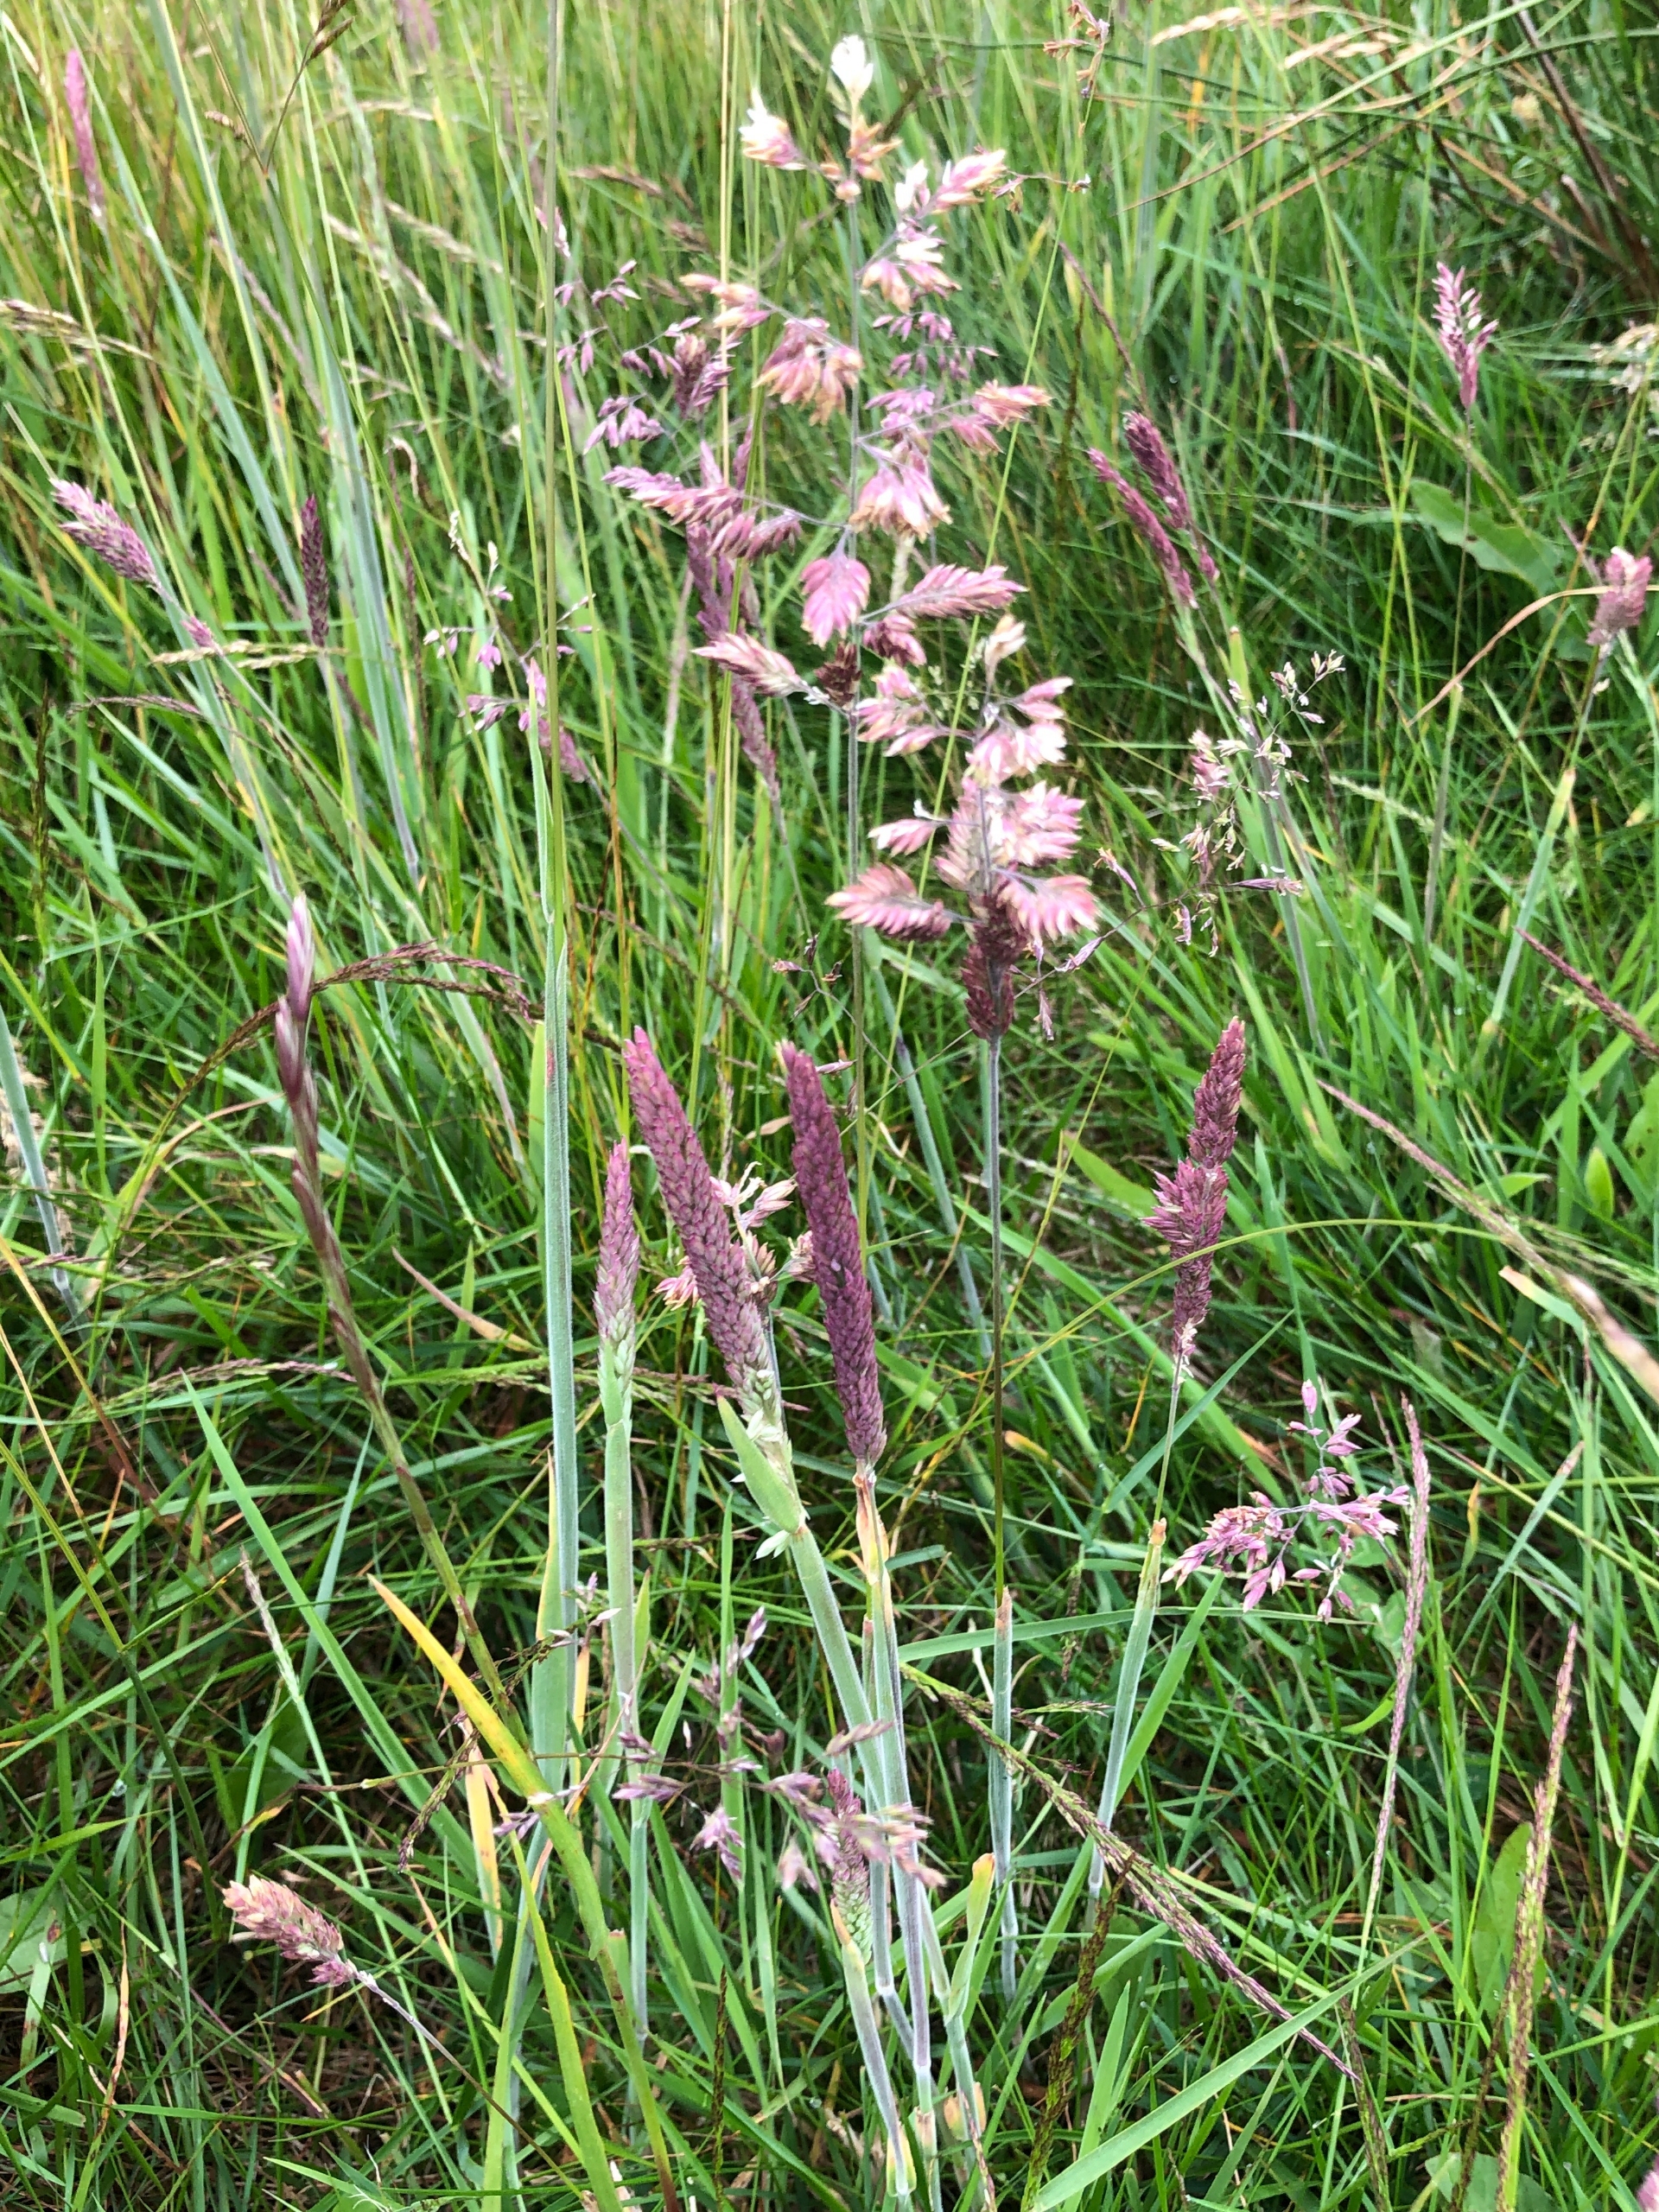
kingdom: Plantae
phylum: Tracheophyta
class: Liliopsida
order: Poales
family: Poaceae
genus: Holcus
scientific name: Holcus lanatus
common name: Fløjlsgræs
